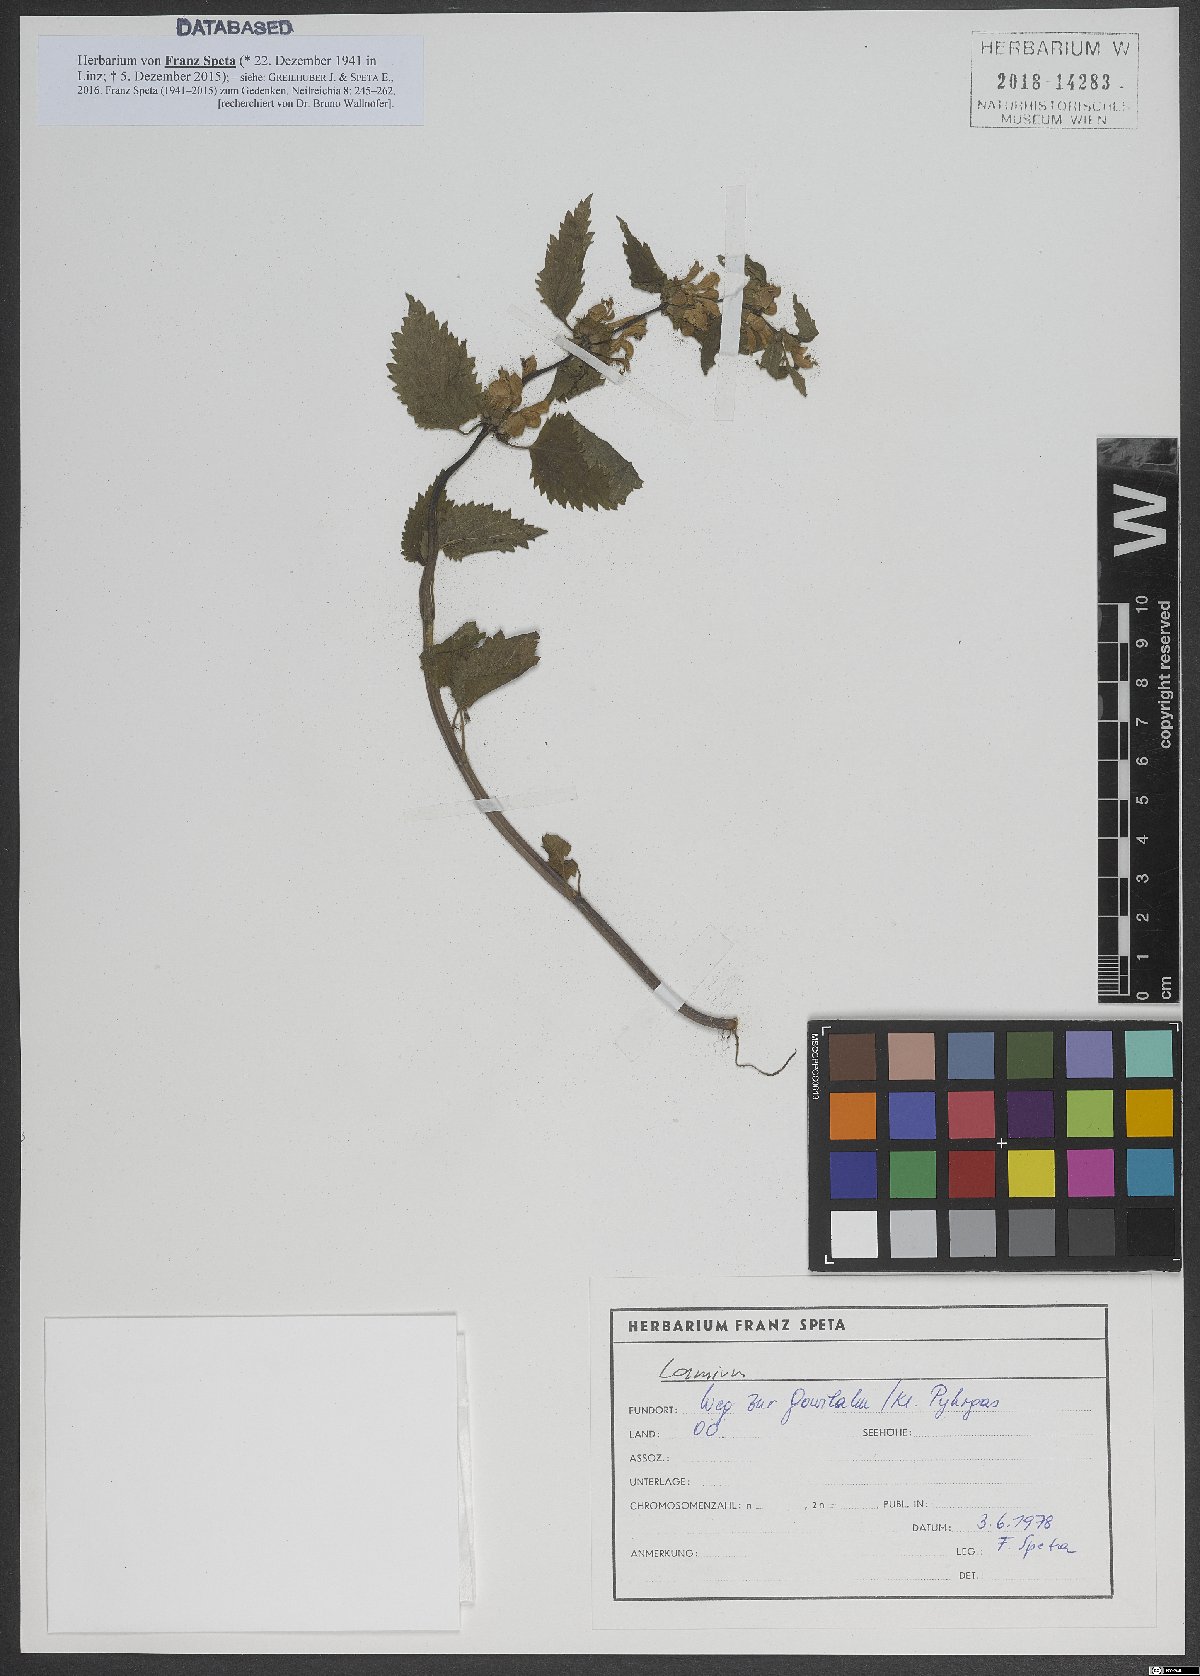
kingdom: Plantae
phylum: Tracheophyta
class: Magnoliopsida
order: Lamiales
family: Lamiaceae
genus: Lamium
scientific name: Lamium
